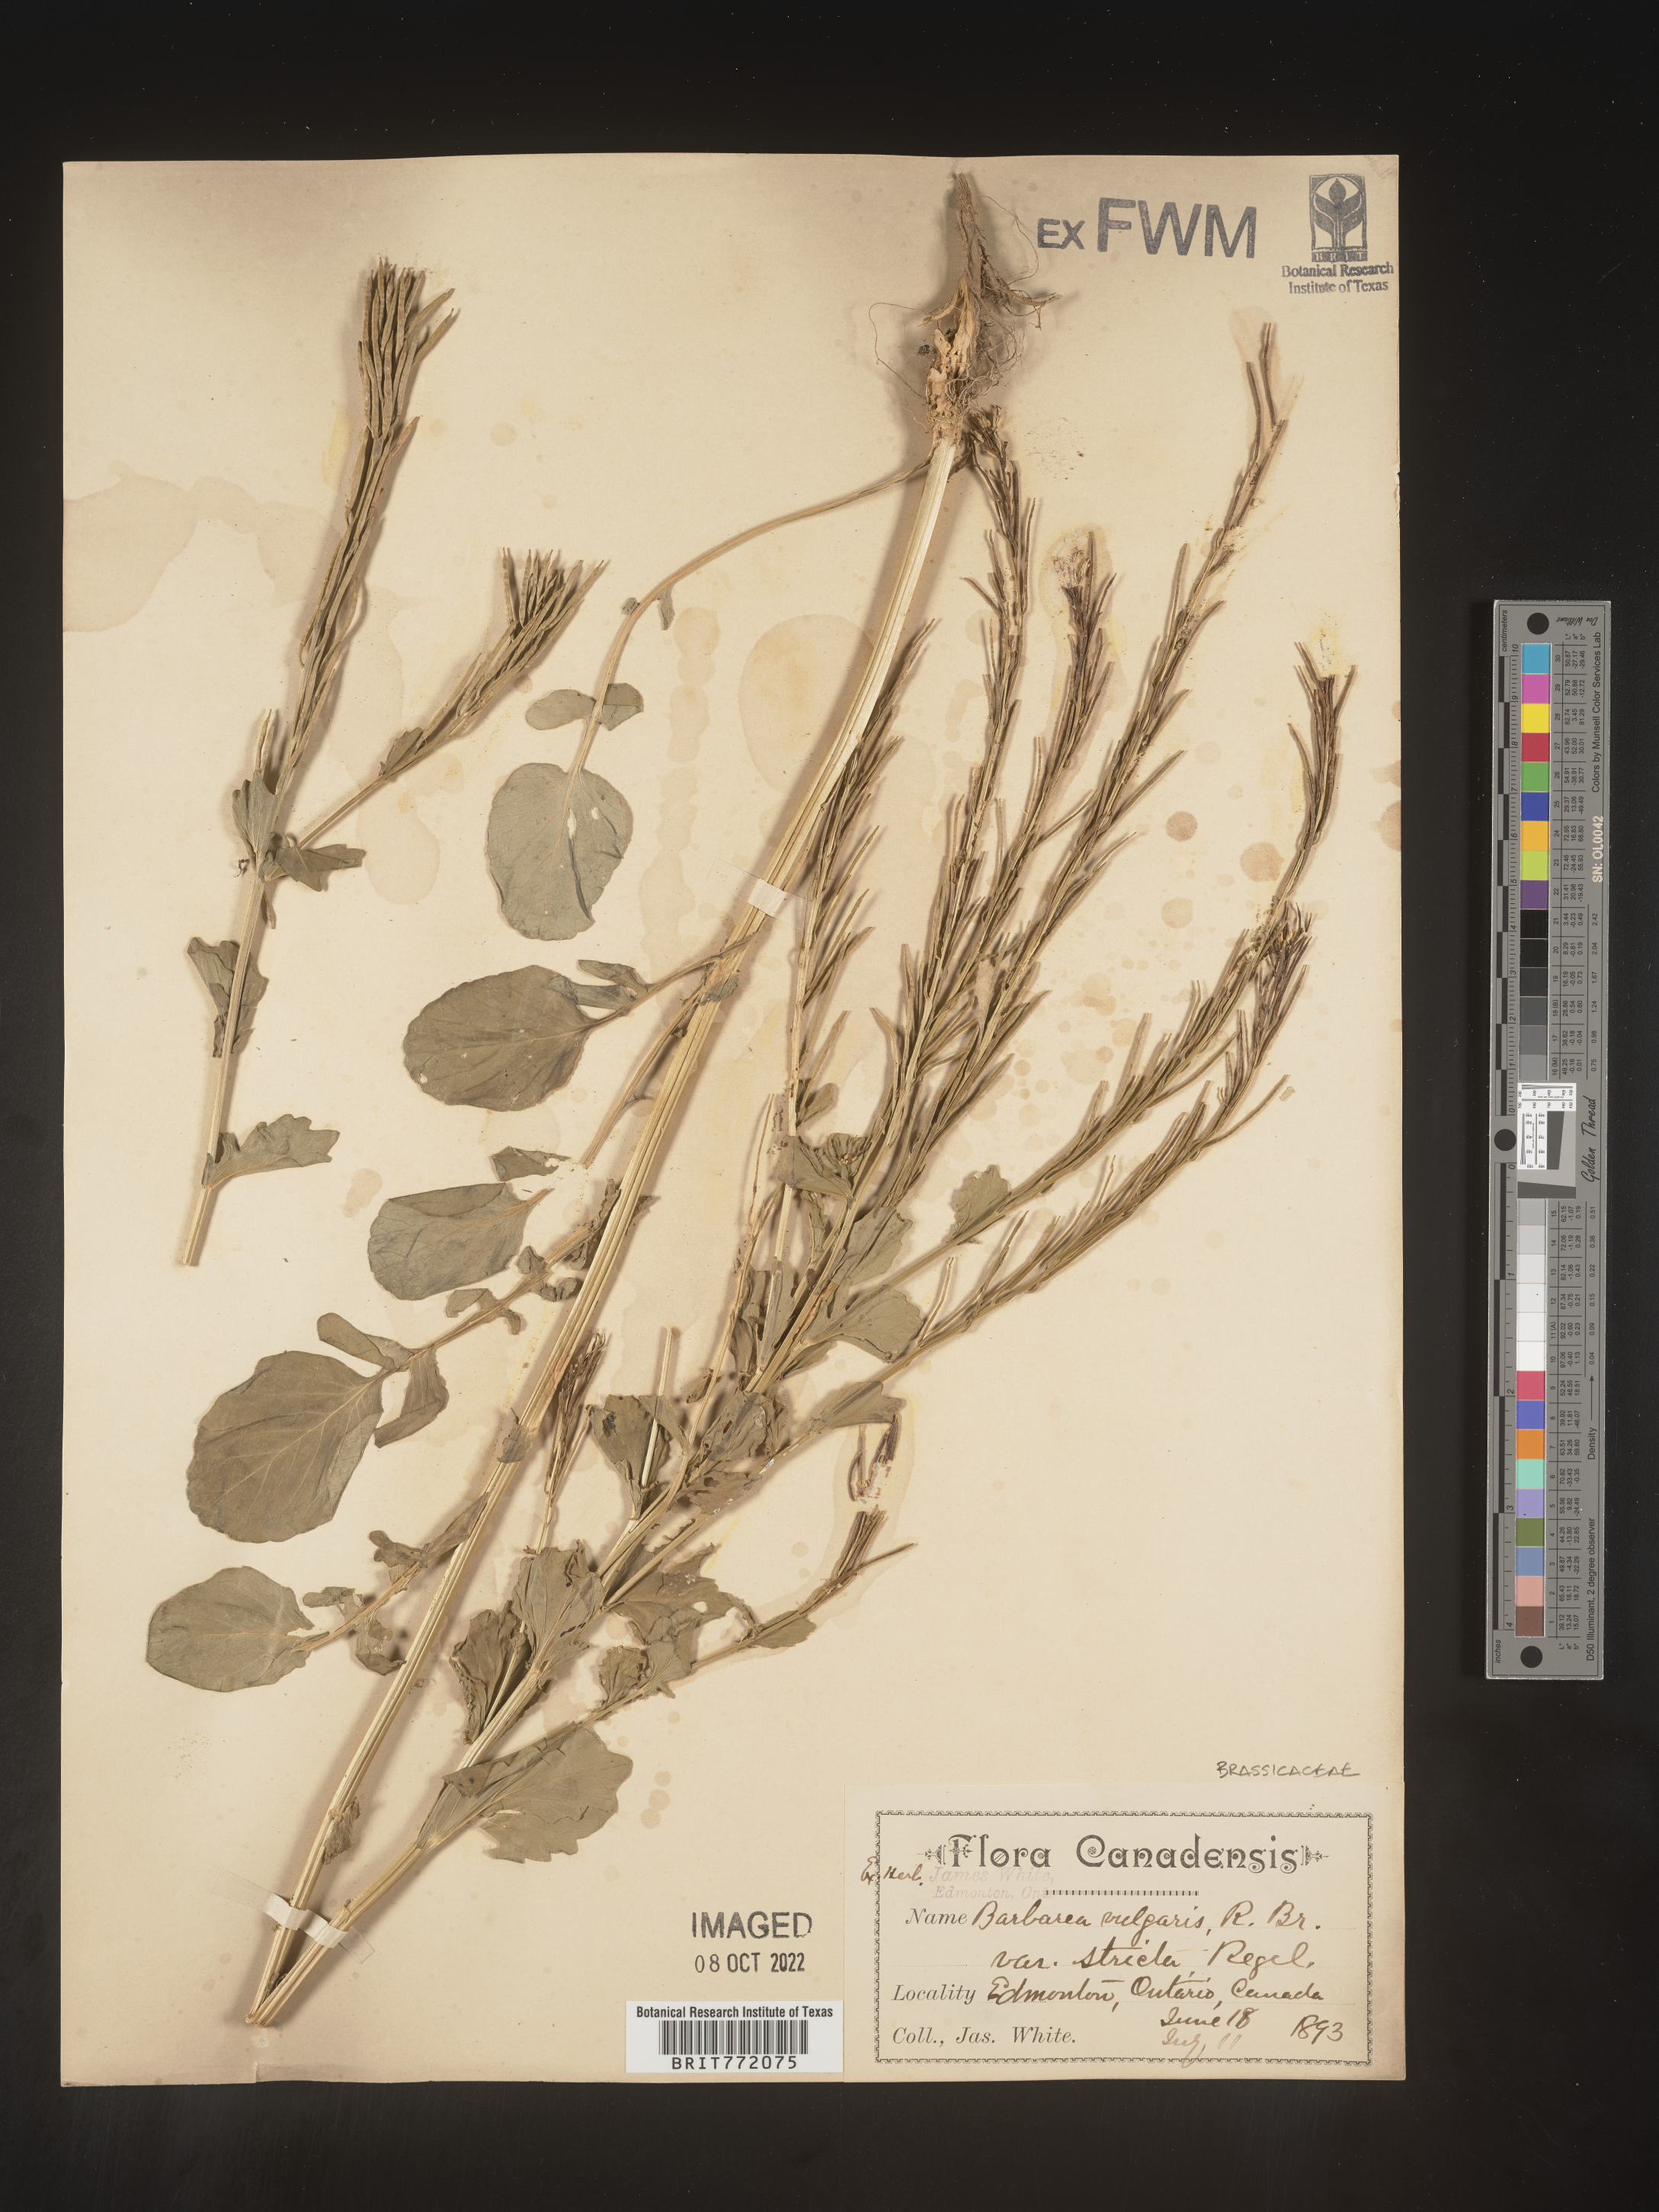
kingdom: Plantae
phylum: Tracheophyta
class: Magnoliopsida
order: Brassicales
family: Brassicaceae
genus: Barbarea
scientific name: Barbarea vulgaris
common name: Cressy-greens
